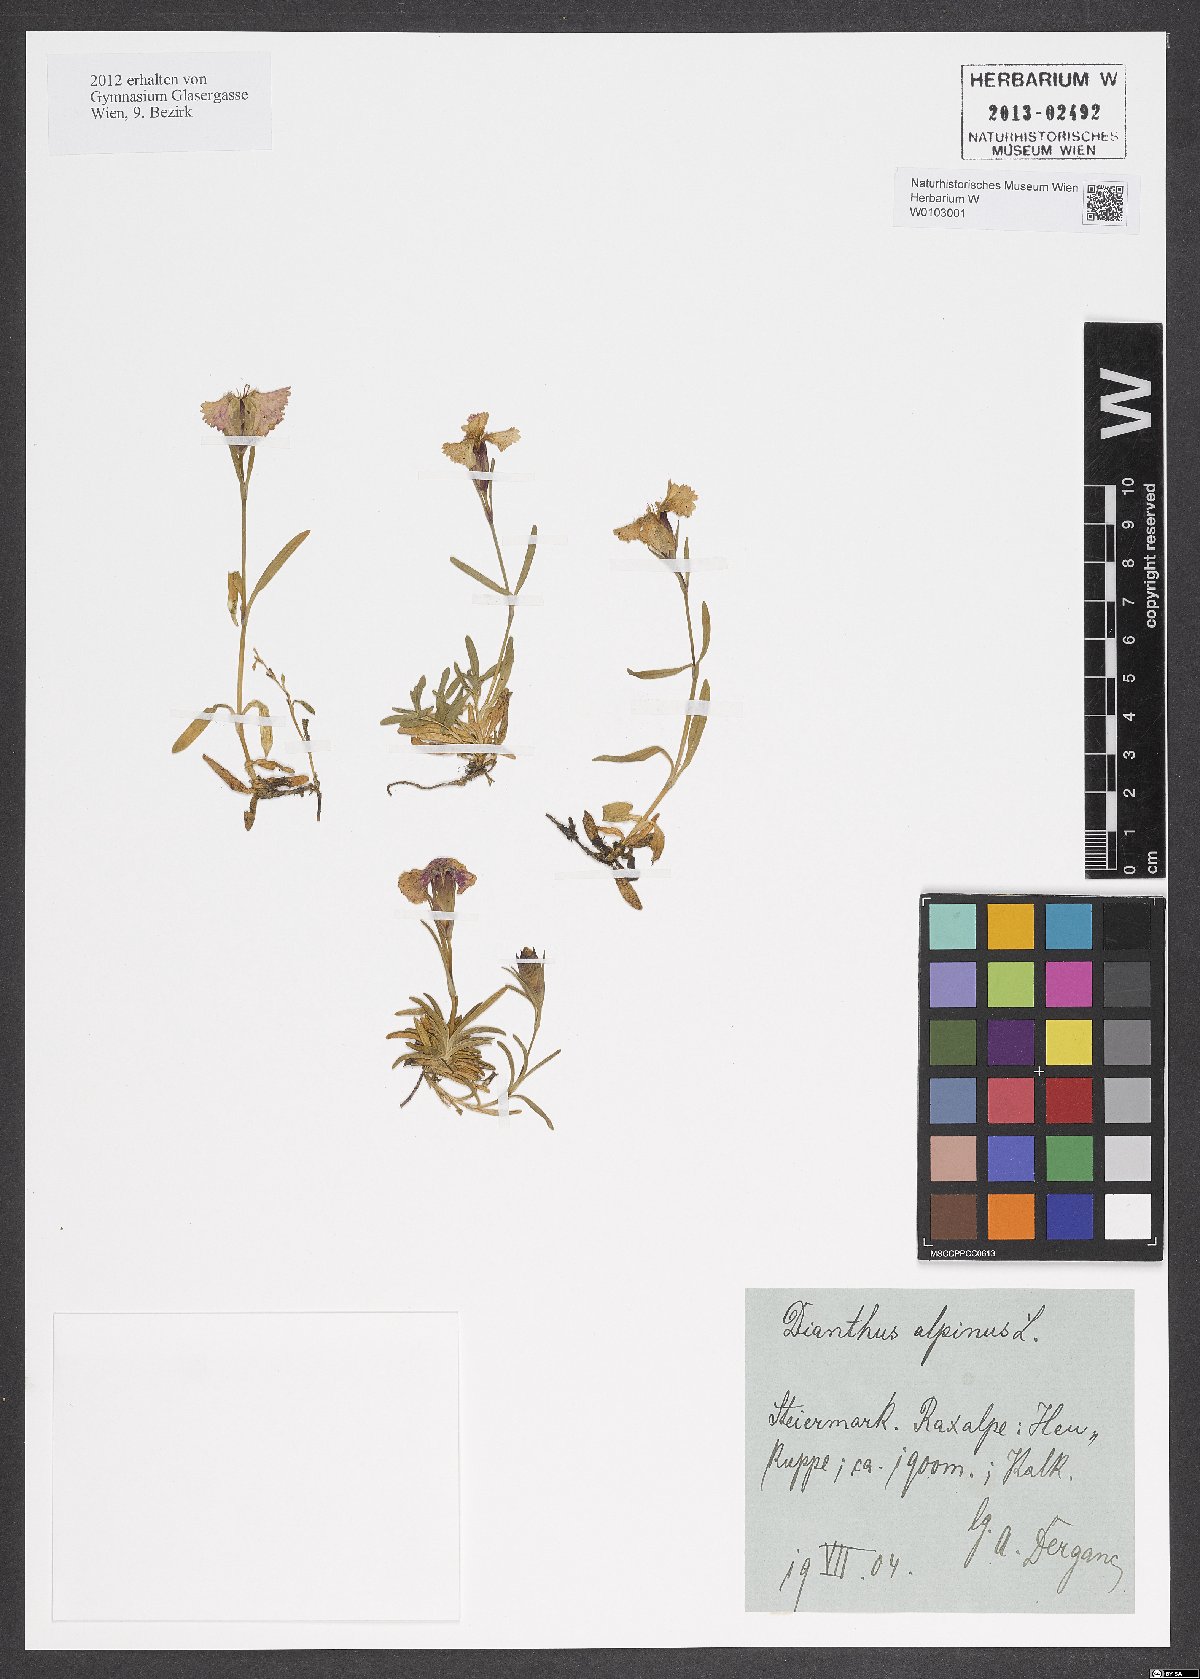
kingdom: Plantae
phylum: Tracheophyta
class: Magnoliopsida
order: Caryophyllales
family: Caryophyllaceae
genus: Dianthus
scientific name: Dianthus alpinus
